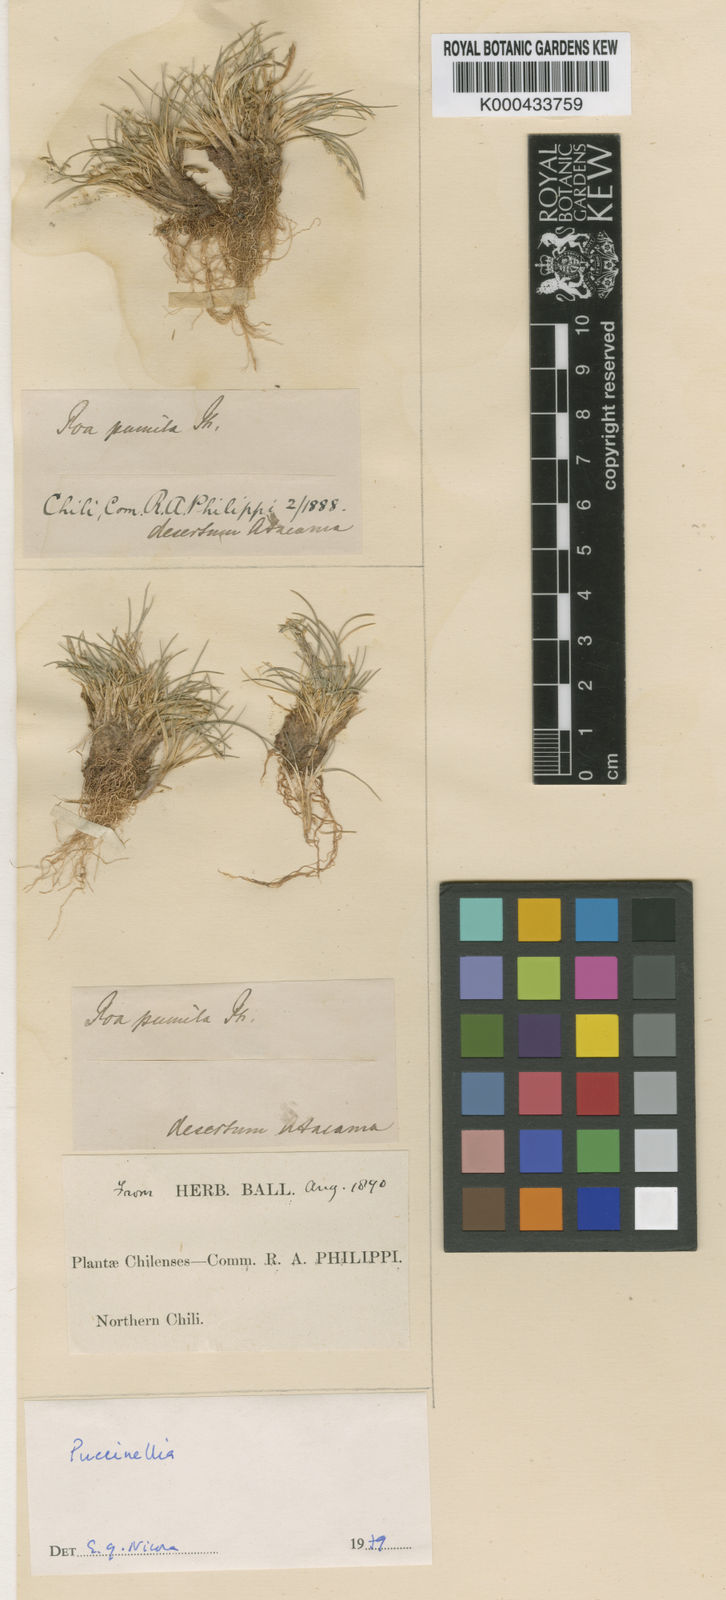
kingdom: Plantae
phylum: Tracheophyta
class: Liliopsida
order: Poales
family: Poaceae
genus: Poa
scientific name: Poa pumila
